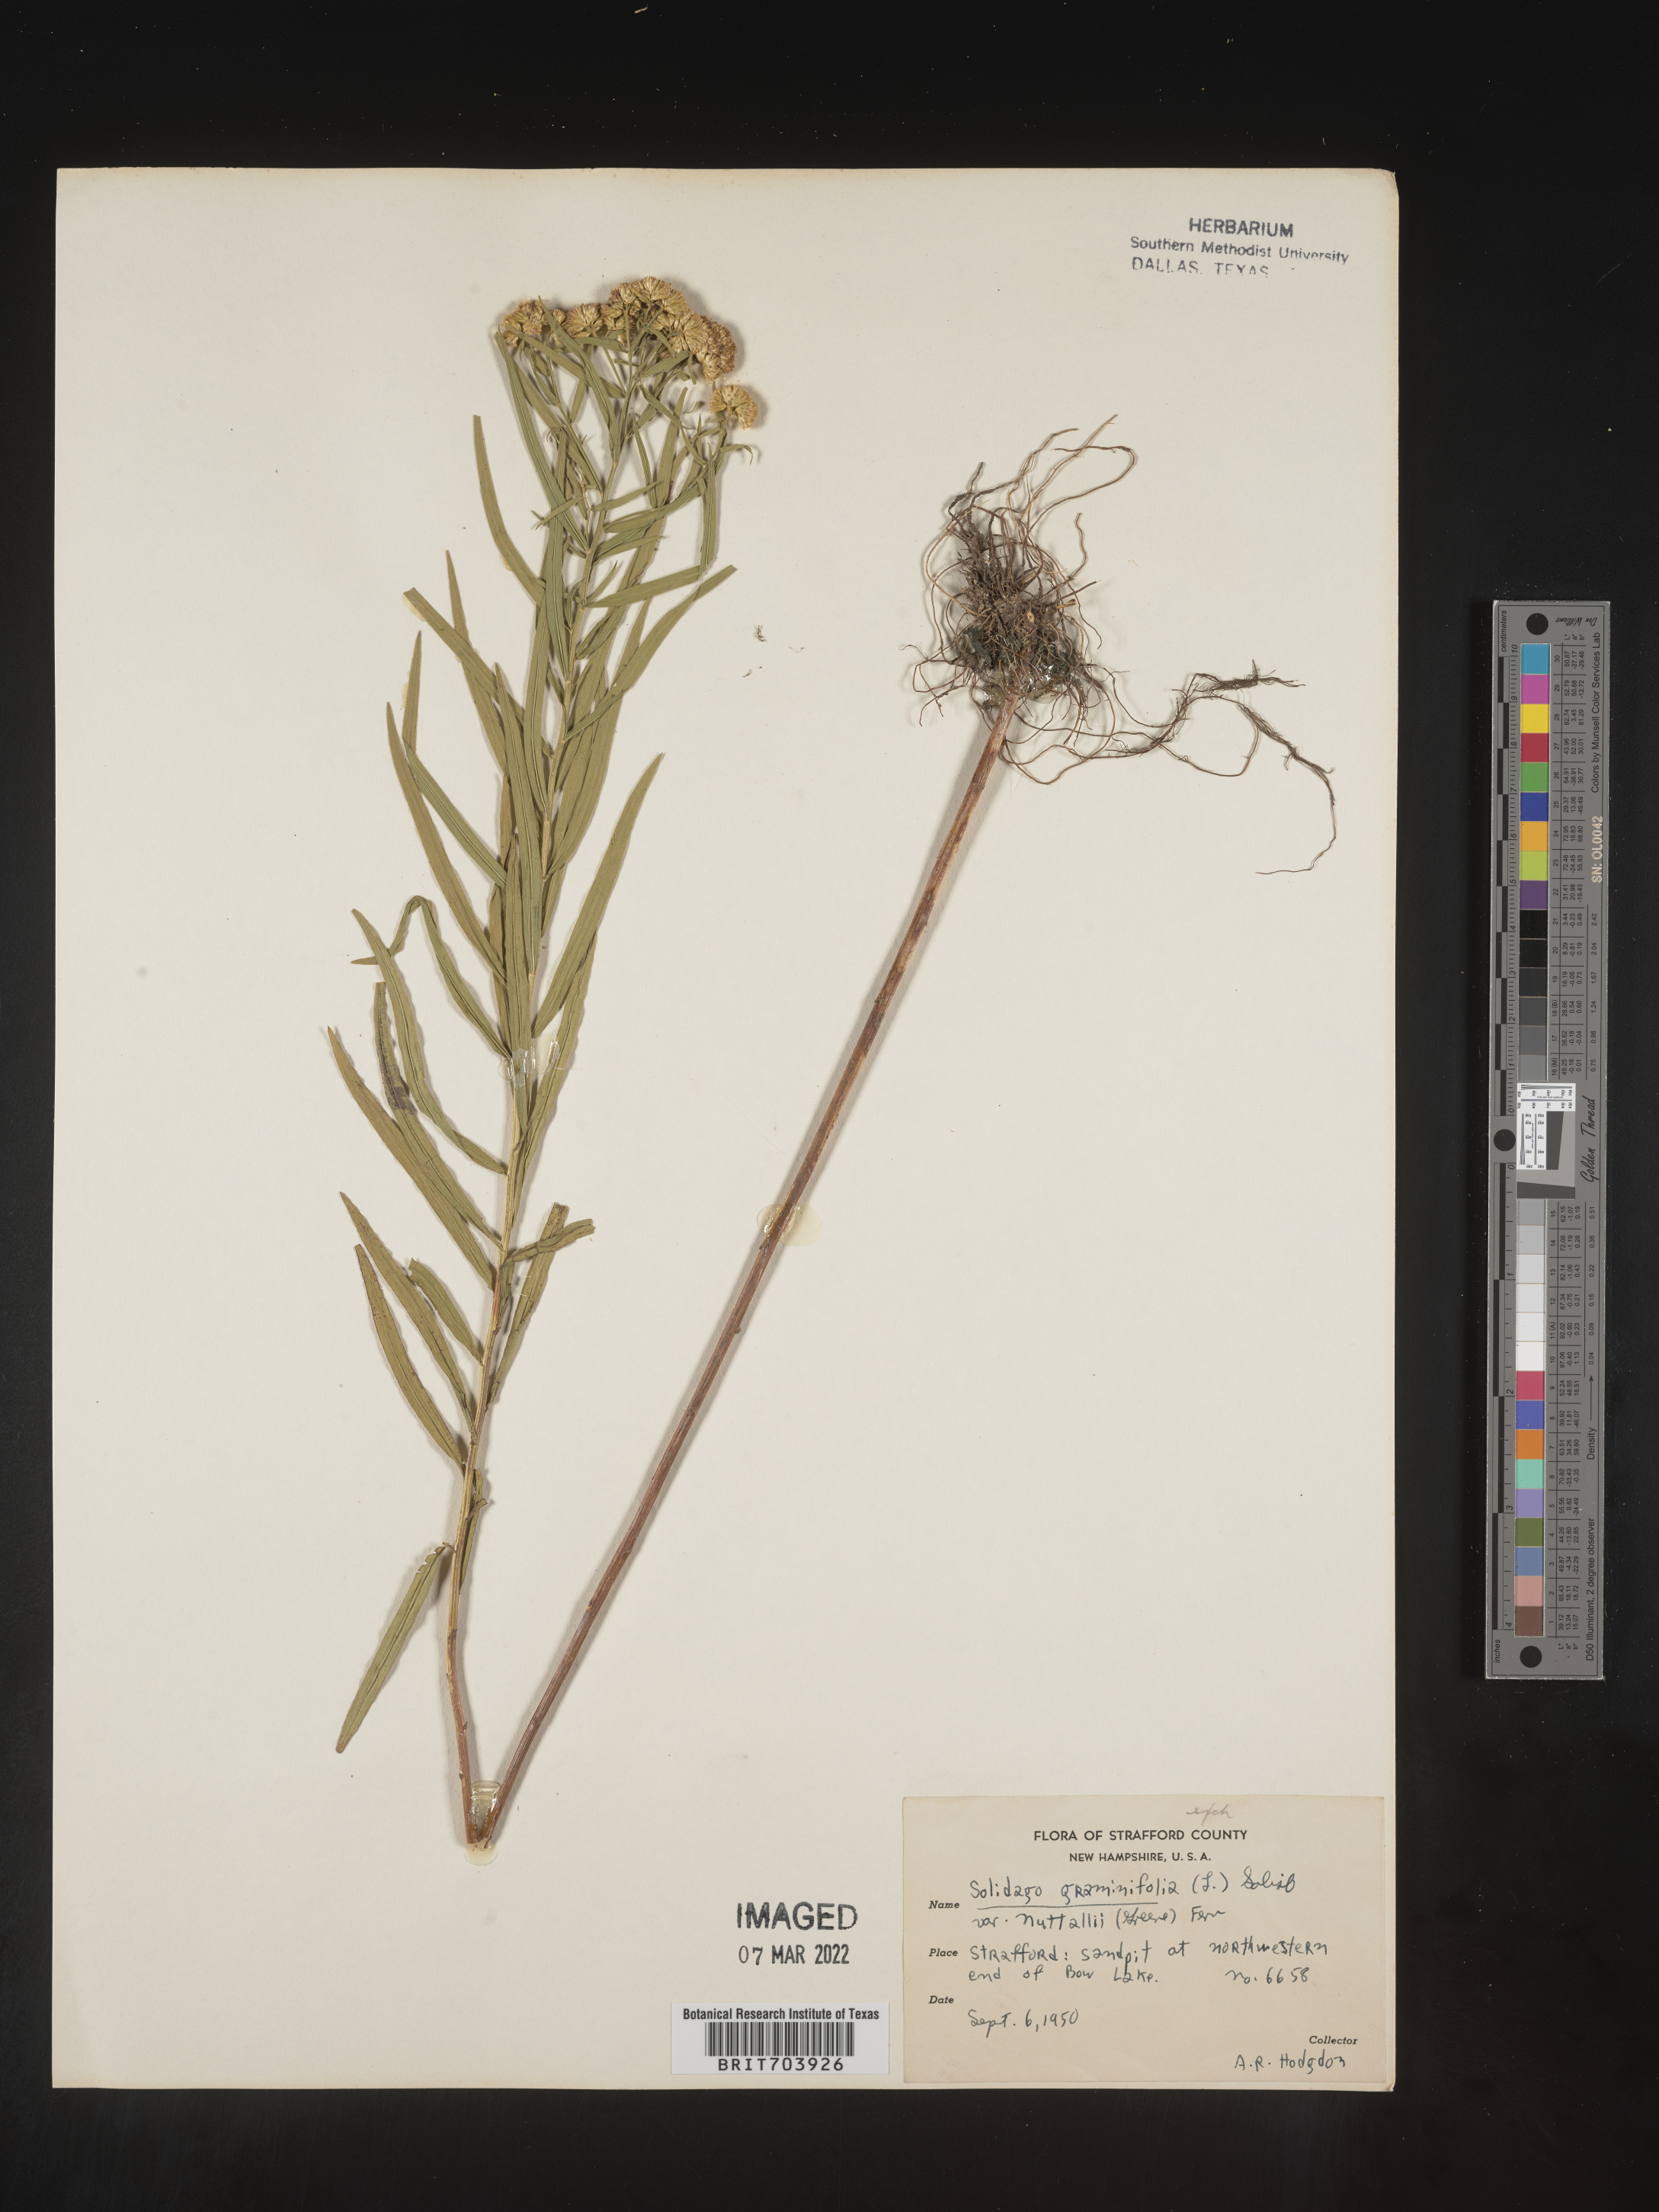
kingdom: Plantae
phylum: Tracheophyta
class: Magnoliopsida
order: Asterales
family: Asteraceae
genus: Euthamia
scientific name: Euthamia graminifolia
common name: Common goldentop
